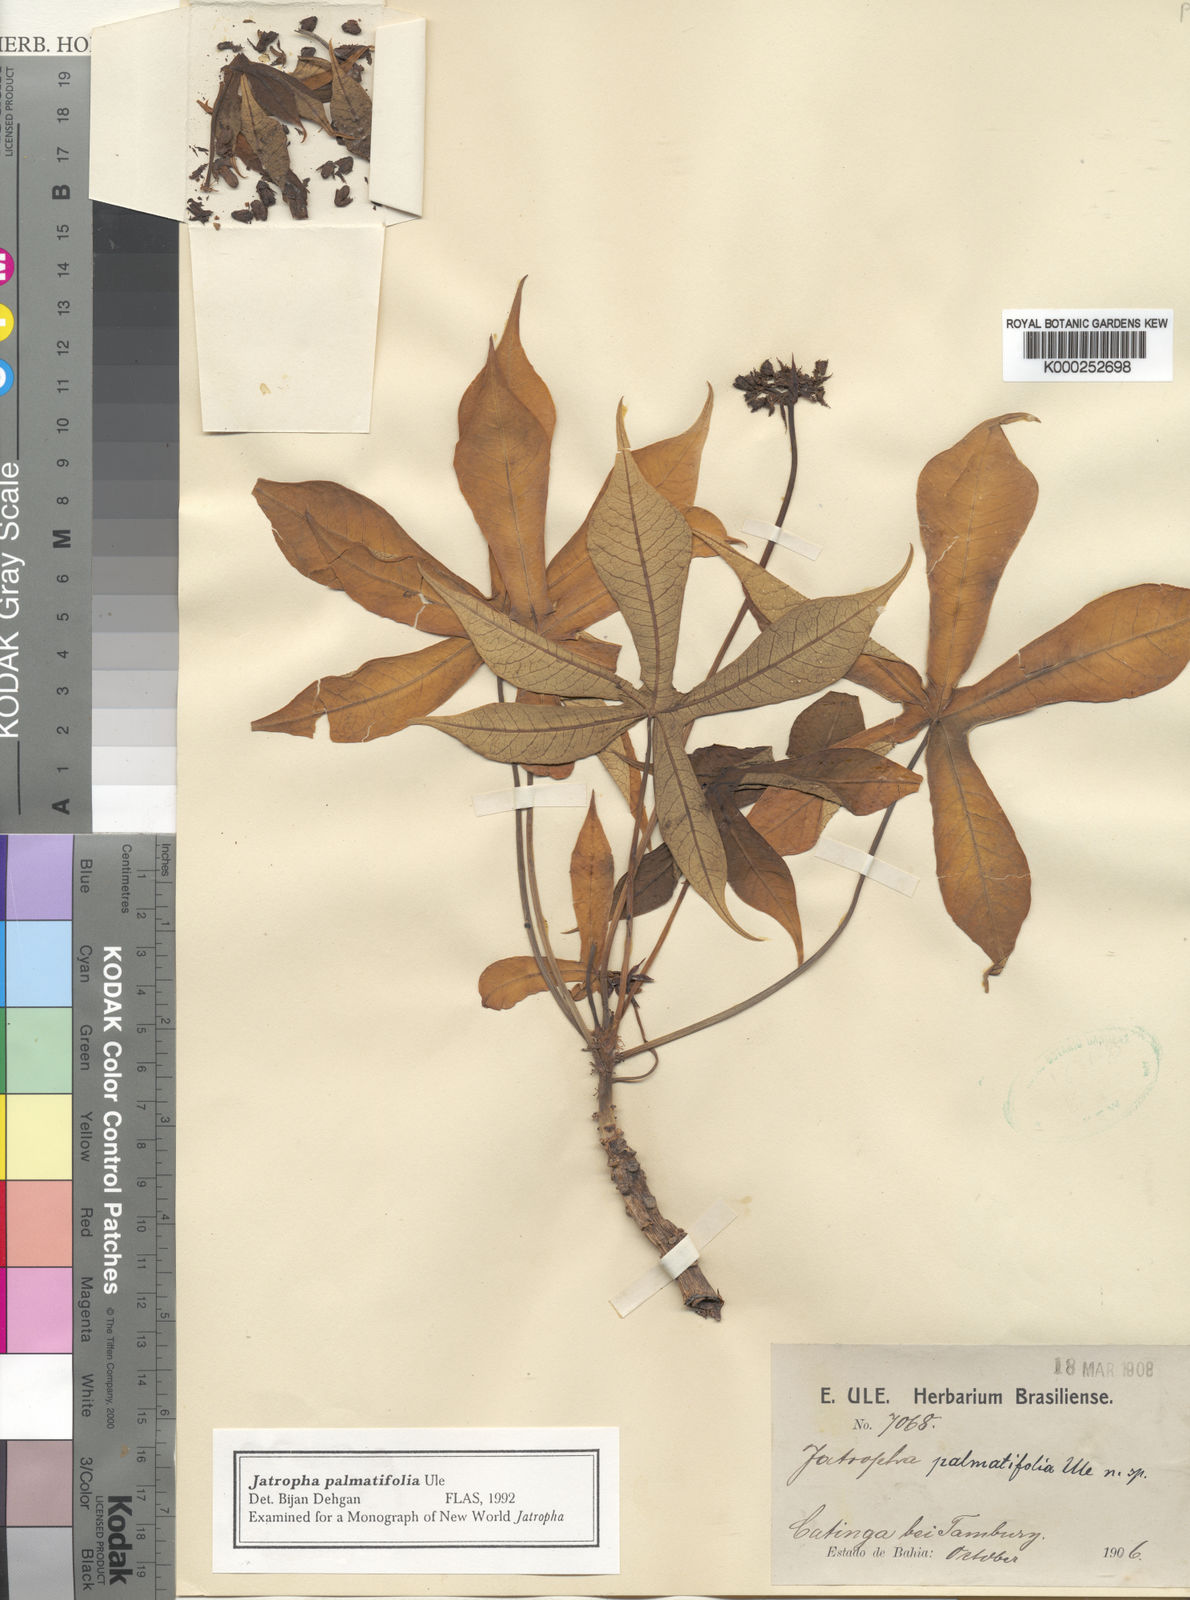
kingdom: Plantae
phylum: Tracheophyta
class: Magnoliopsida
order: Malpighiales
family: Euphorbiaceae
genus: Jatropha
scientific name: Jatropha martiusii
